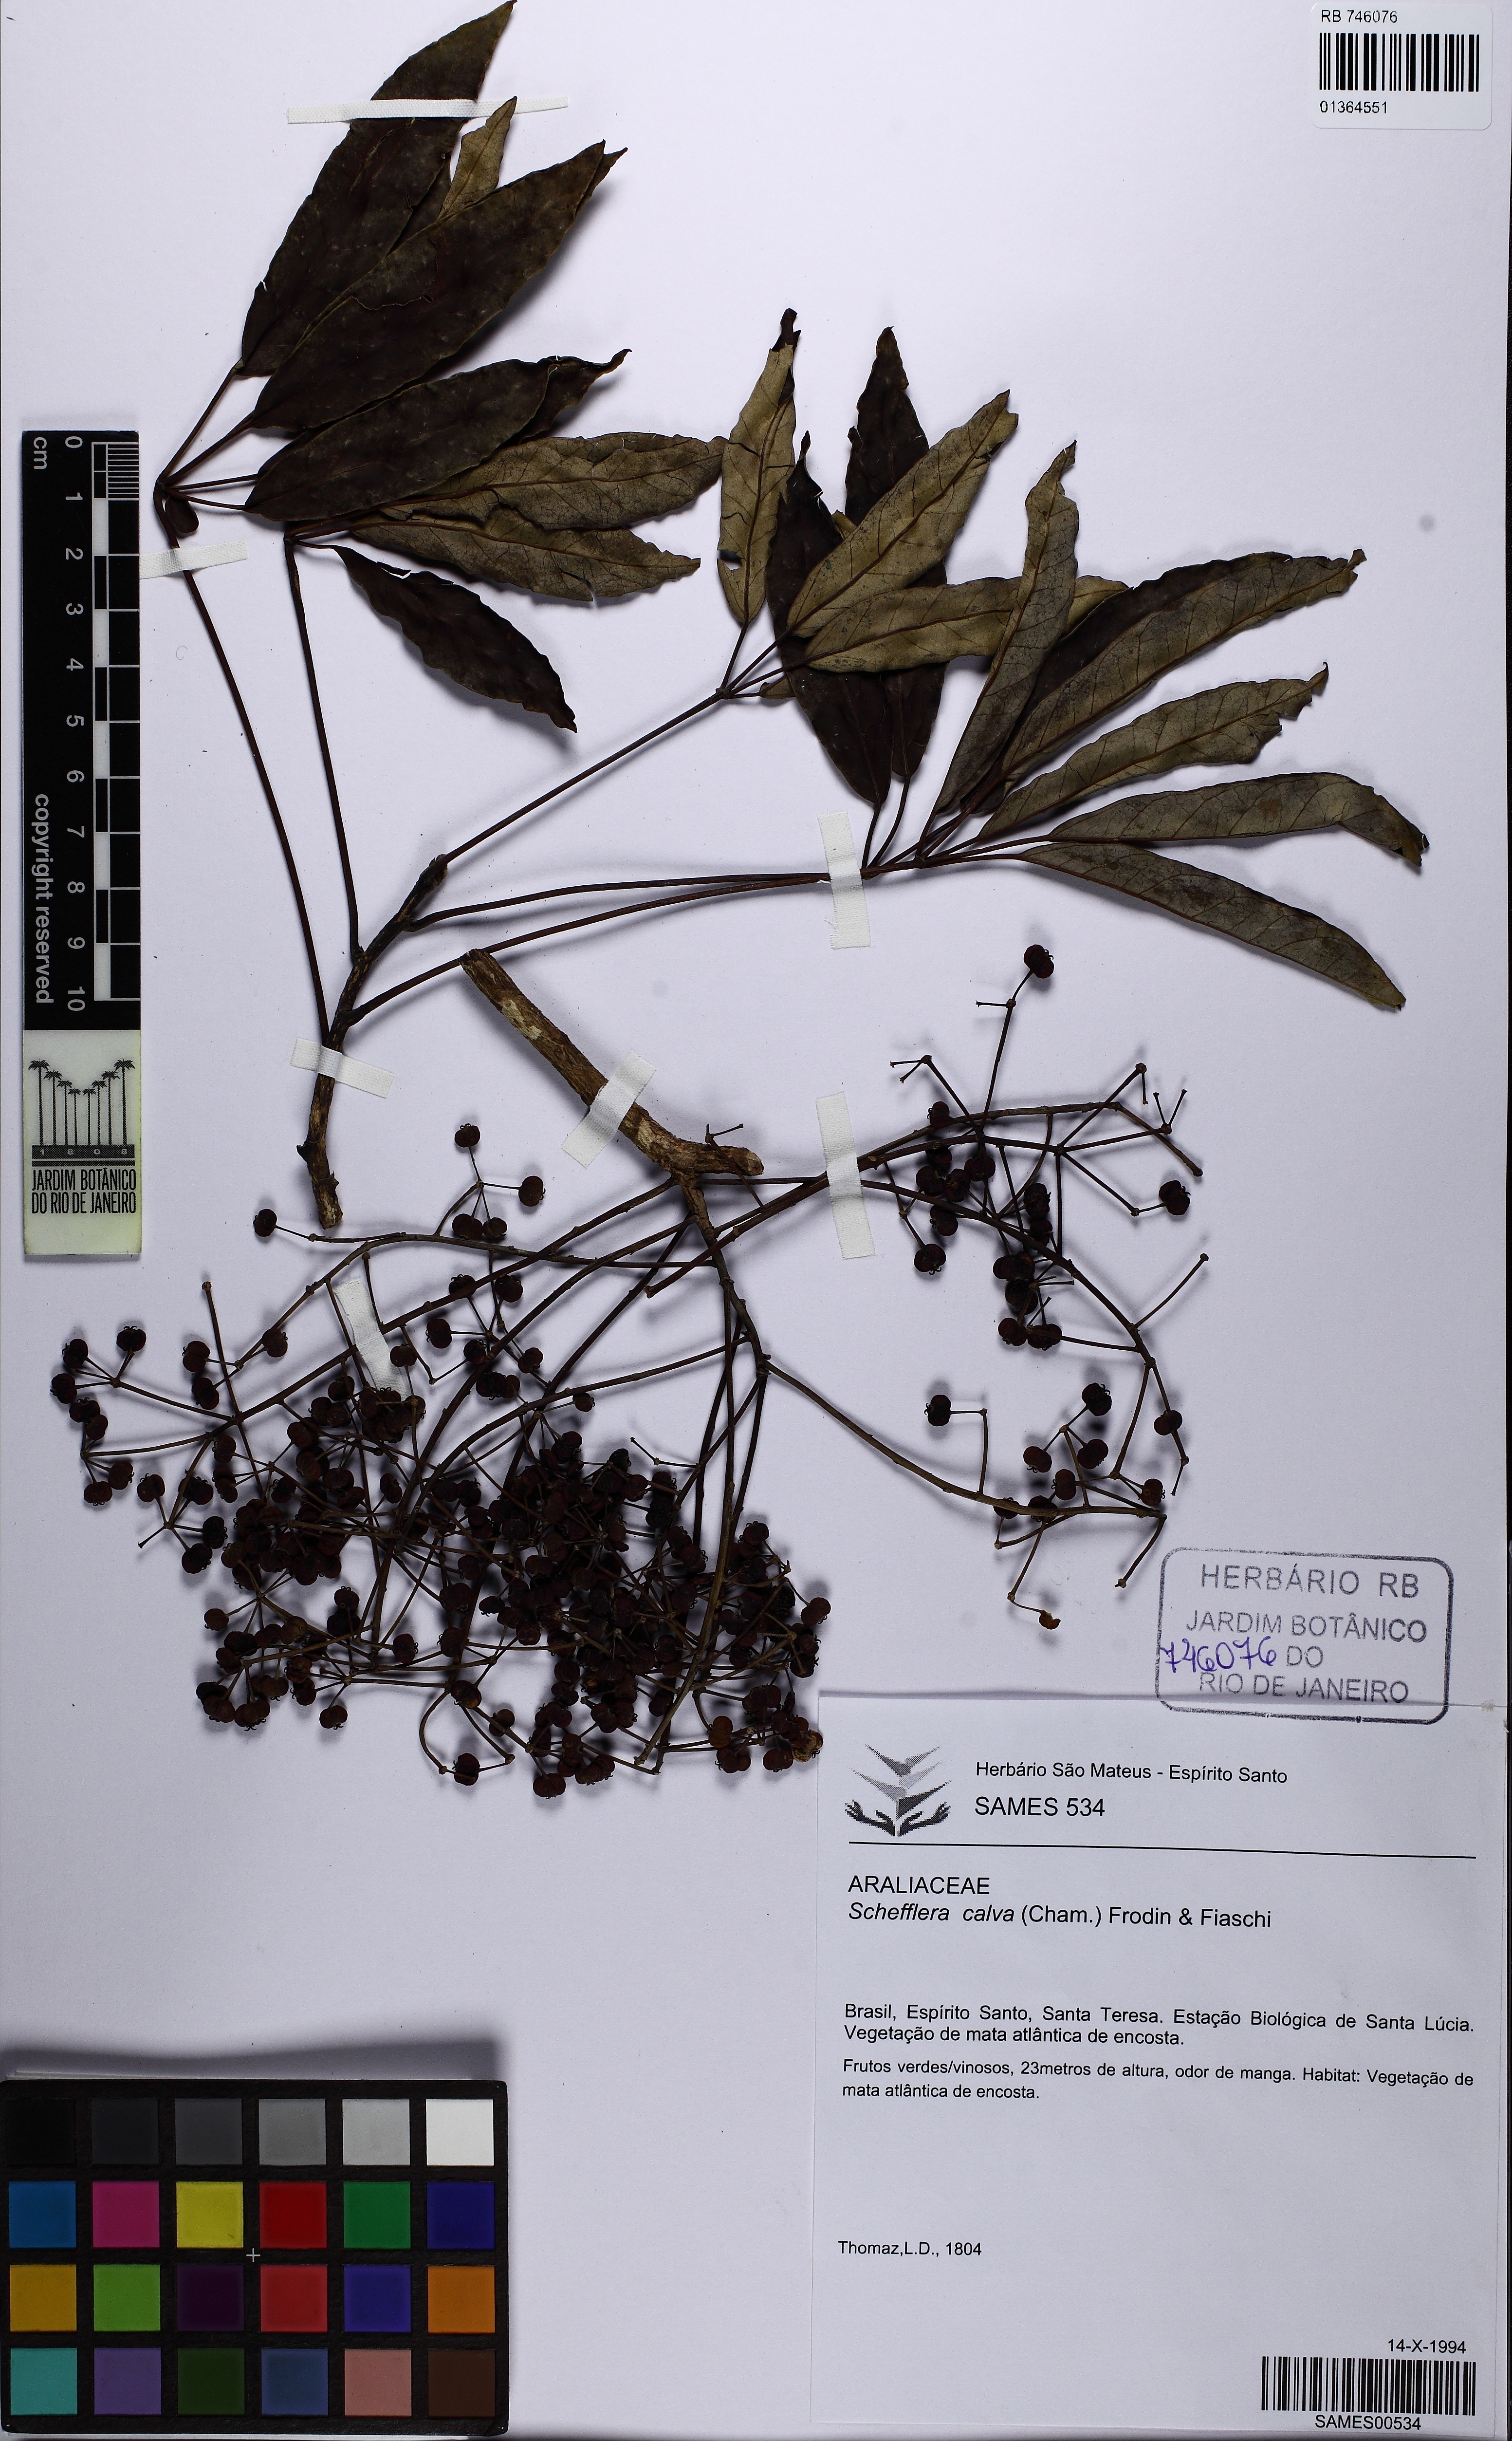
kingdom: Plantae
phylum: Tracheophyta
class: Magnoliopsida
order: Apiales
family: Araliaceae
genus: Didymopanax
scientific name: Didymopanax calvus
